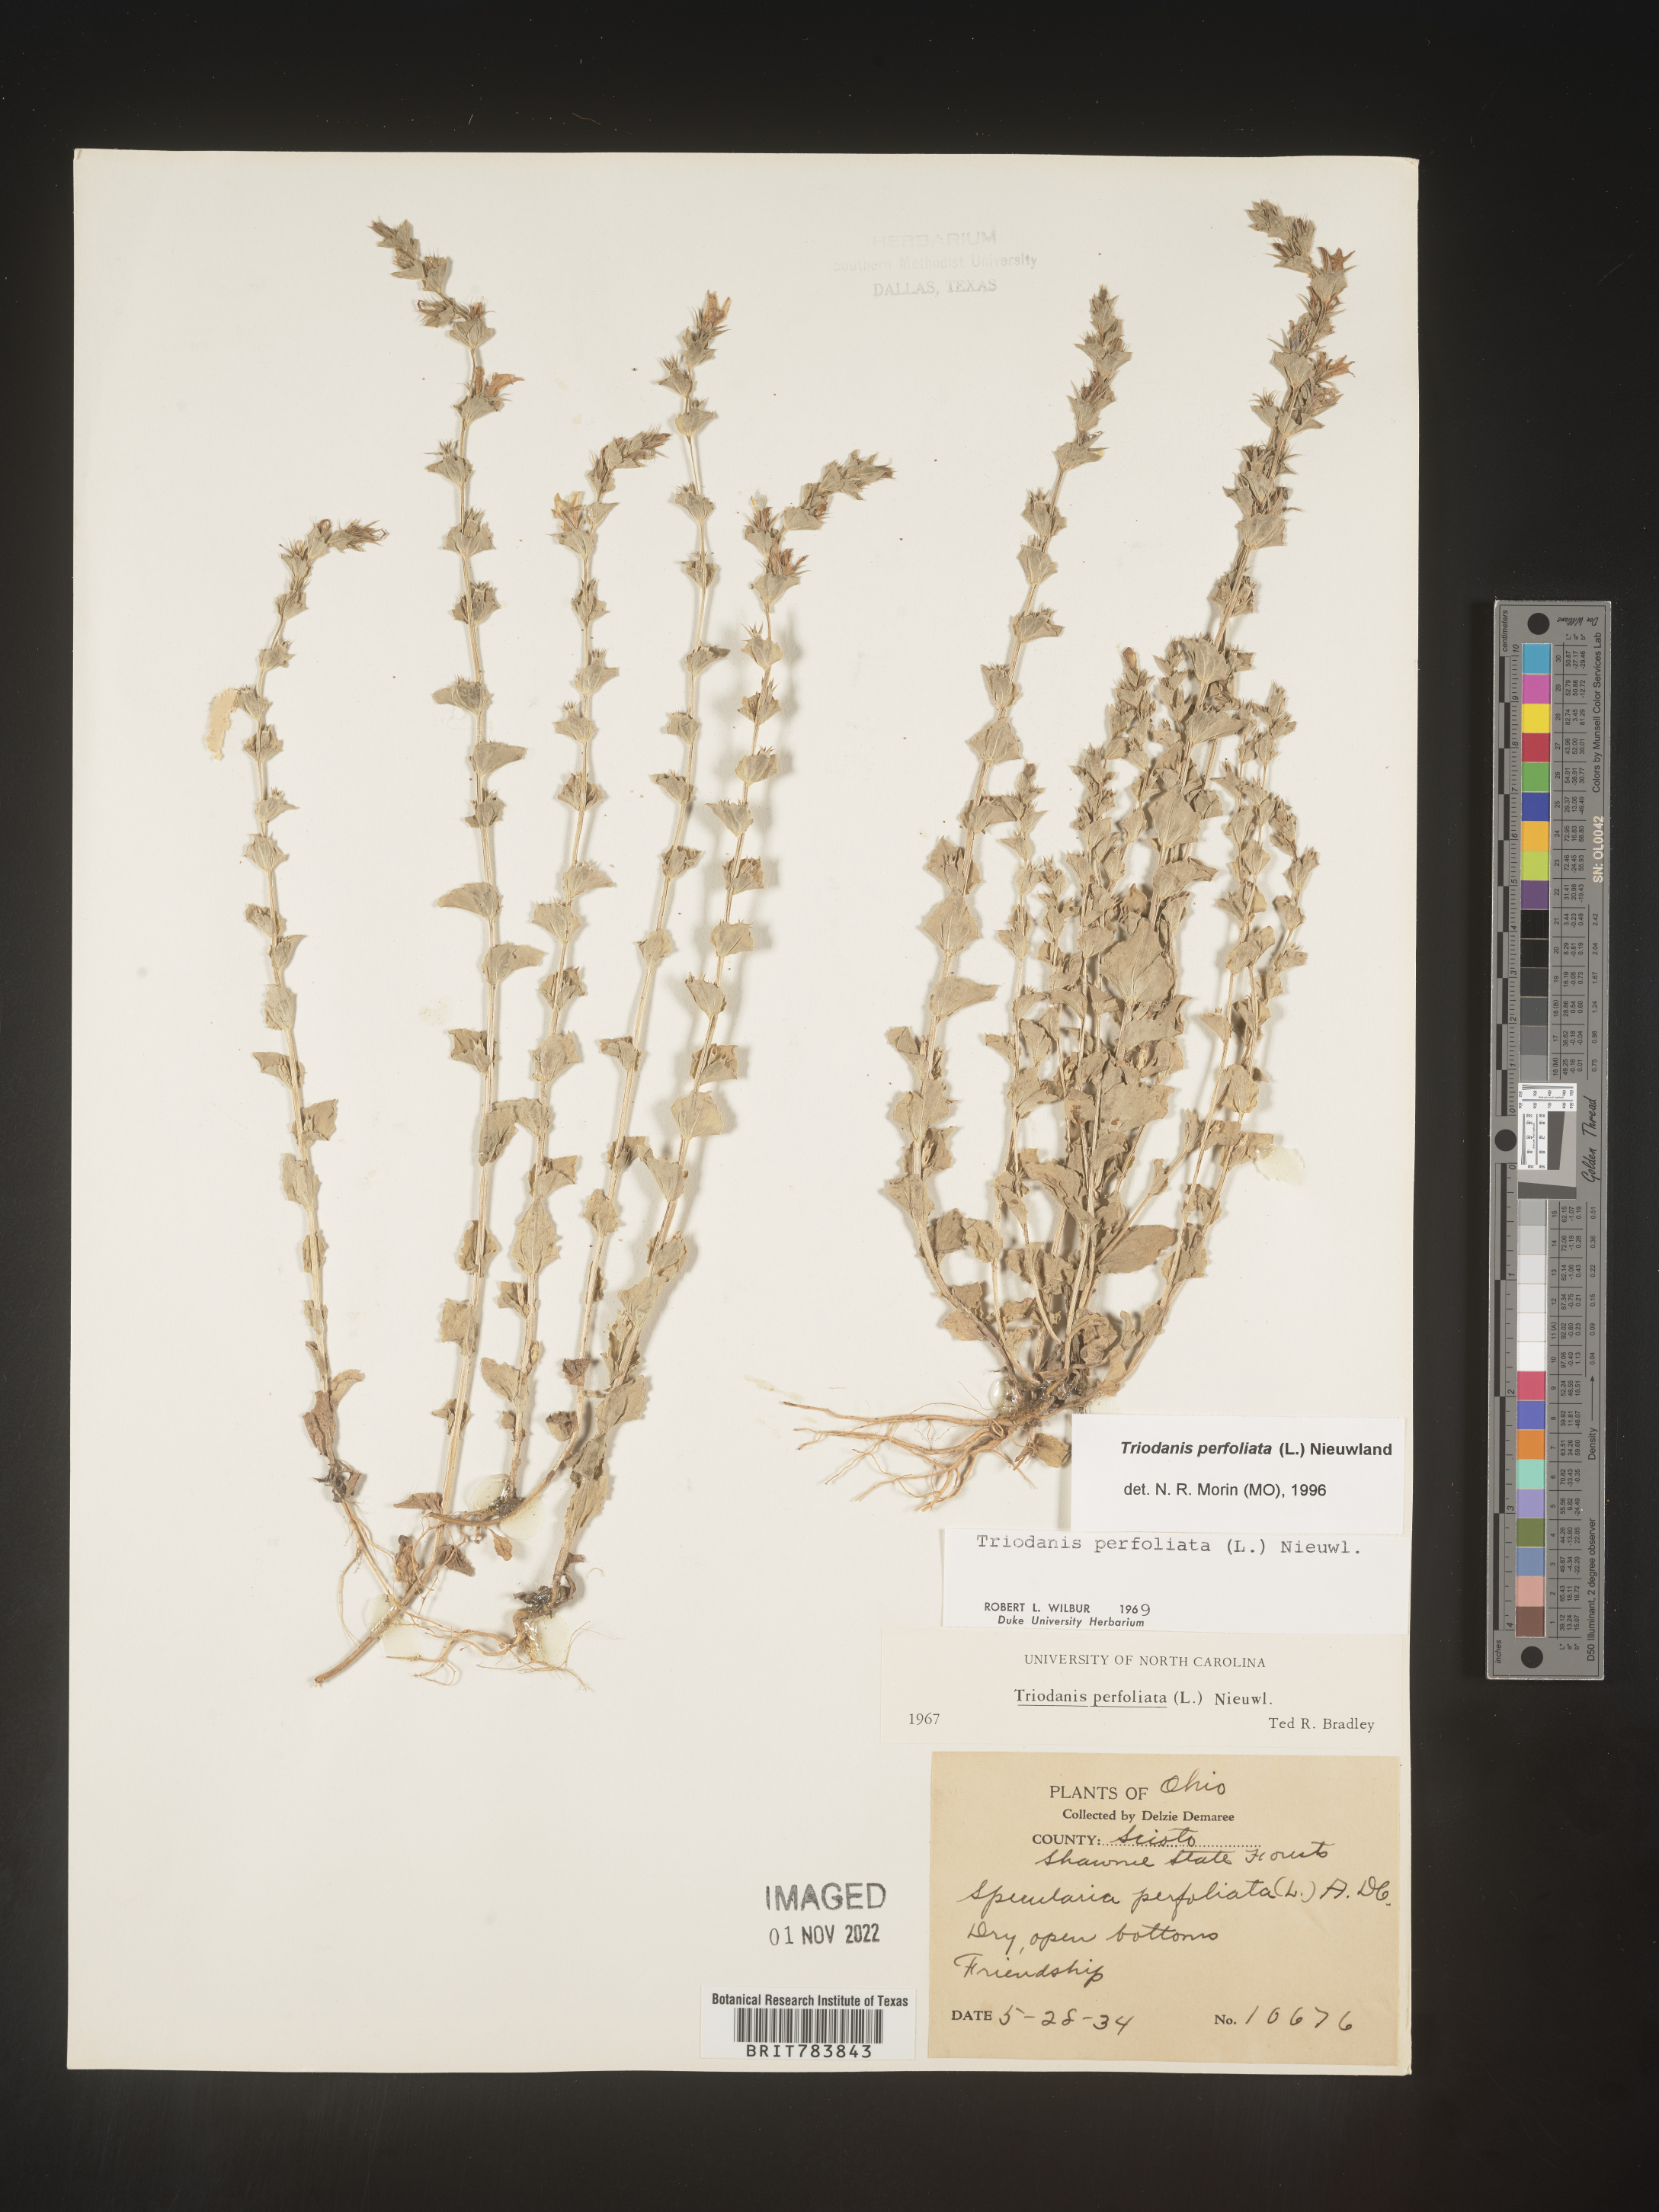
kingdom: Plantae
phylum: Tracheophyta
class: Magnoliopsida
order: Asterales
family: Campanulaceae
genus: Triodanis
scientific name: Triodanis perfoliata
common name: Clasping venus' looking-glass
